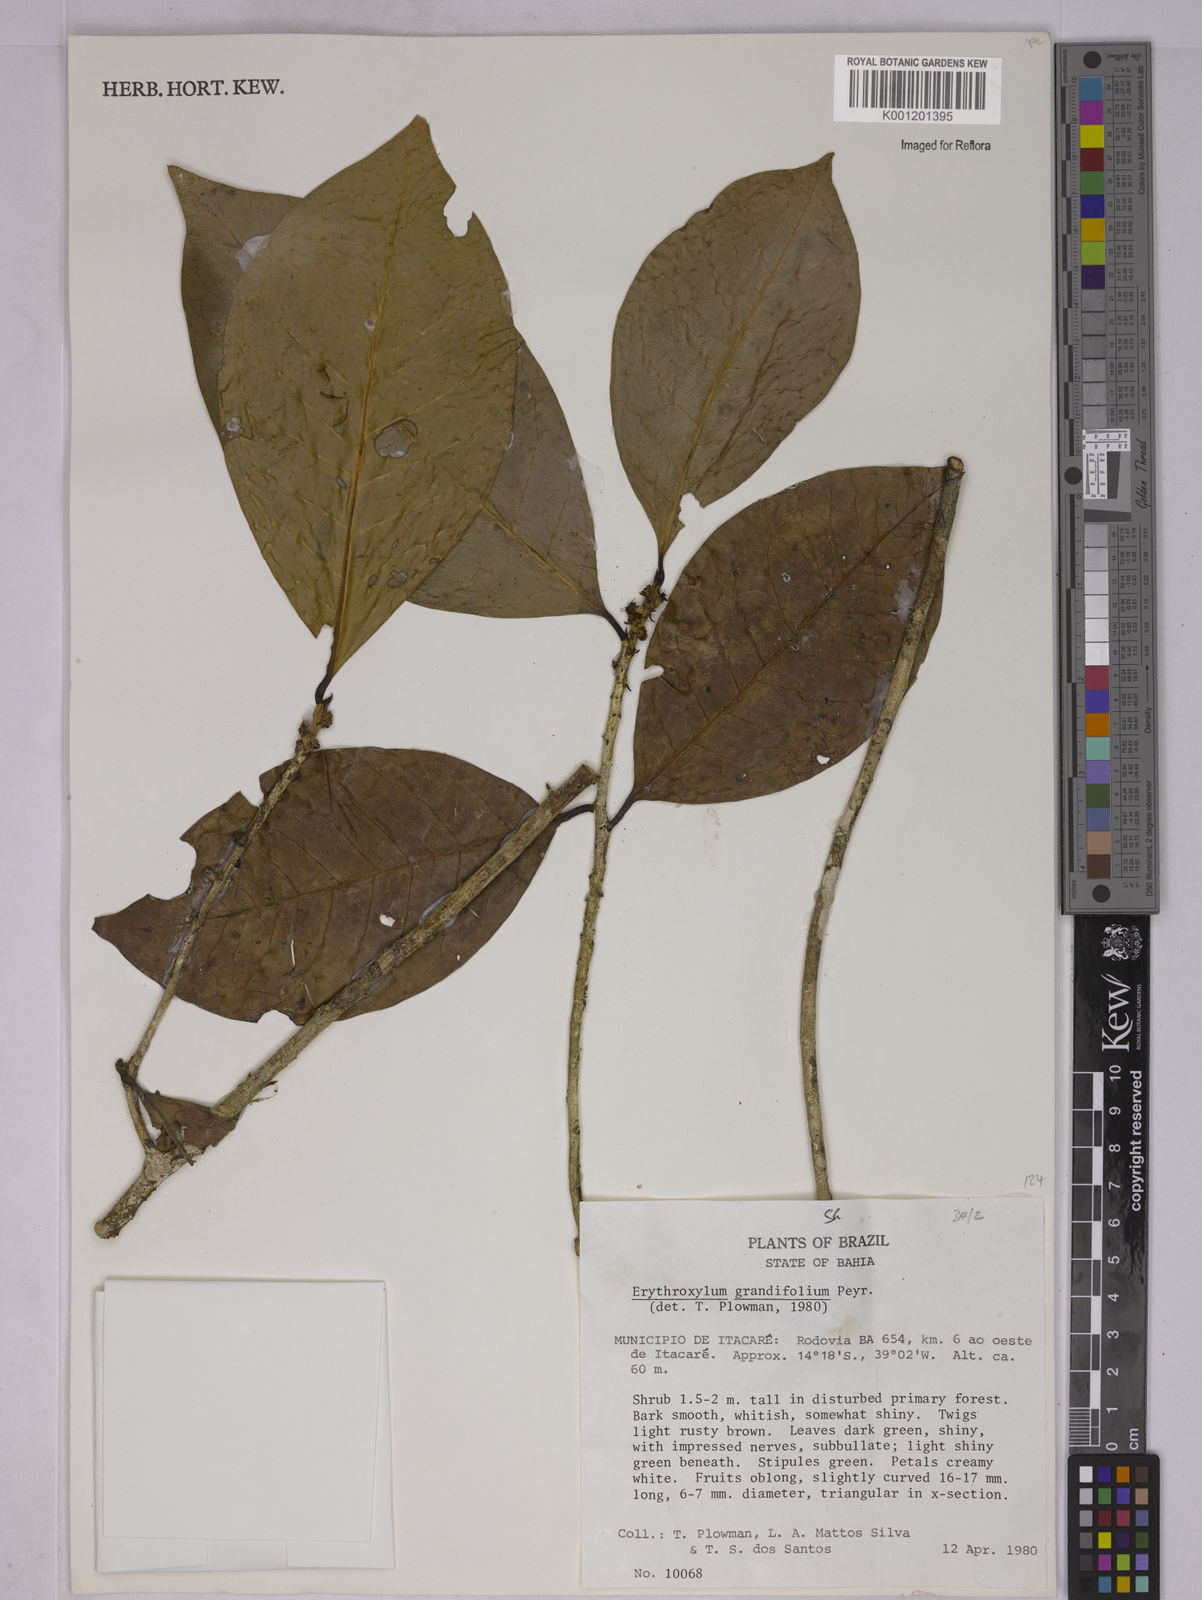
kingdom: Plantae
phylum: Tracheophyta
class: Magnoliopsida
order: Malpighiales
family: Erythroxylaceae
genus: Erythroxylum
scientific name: Erythroxylum grandifolium
